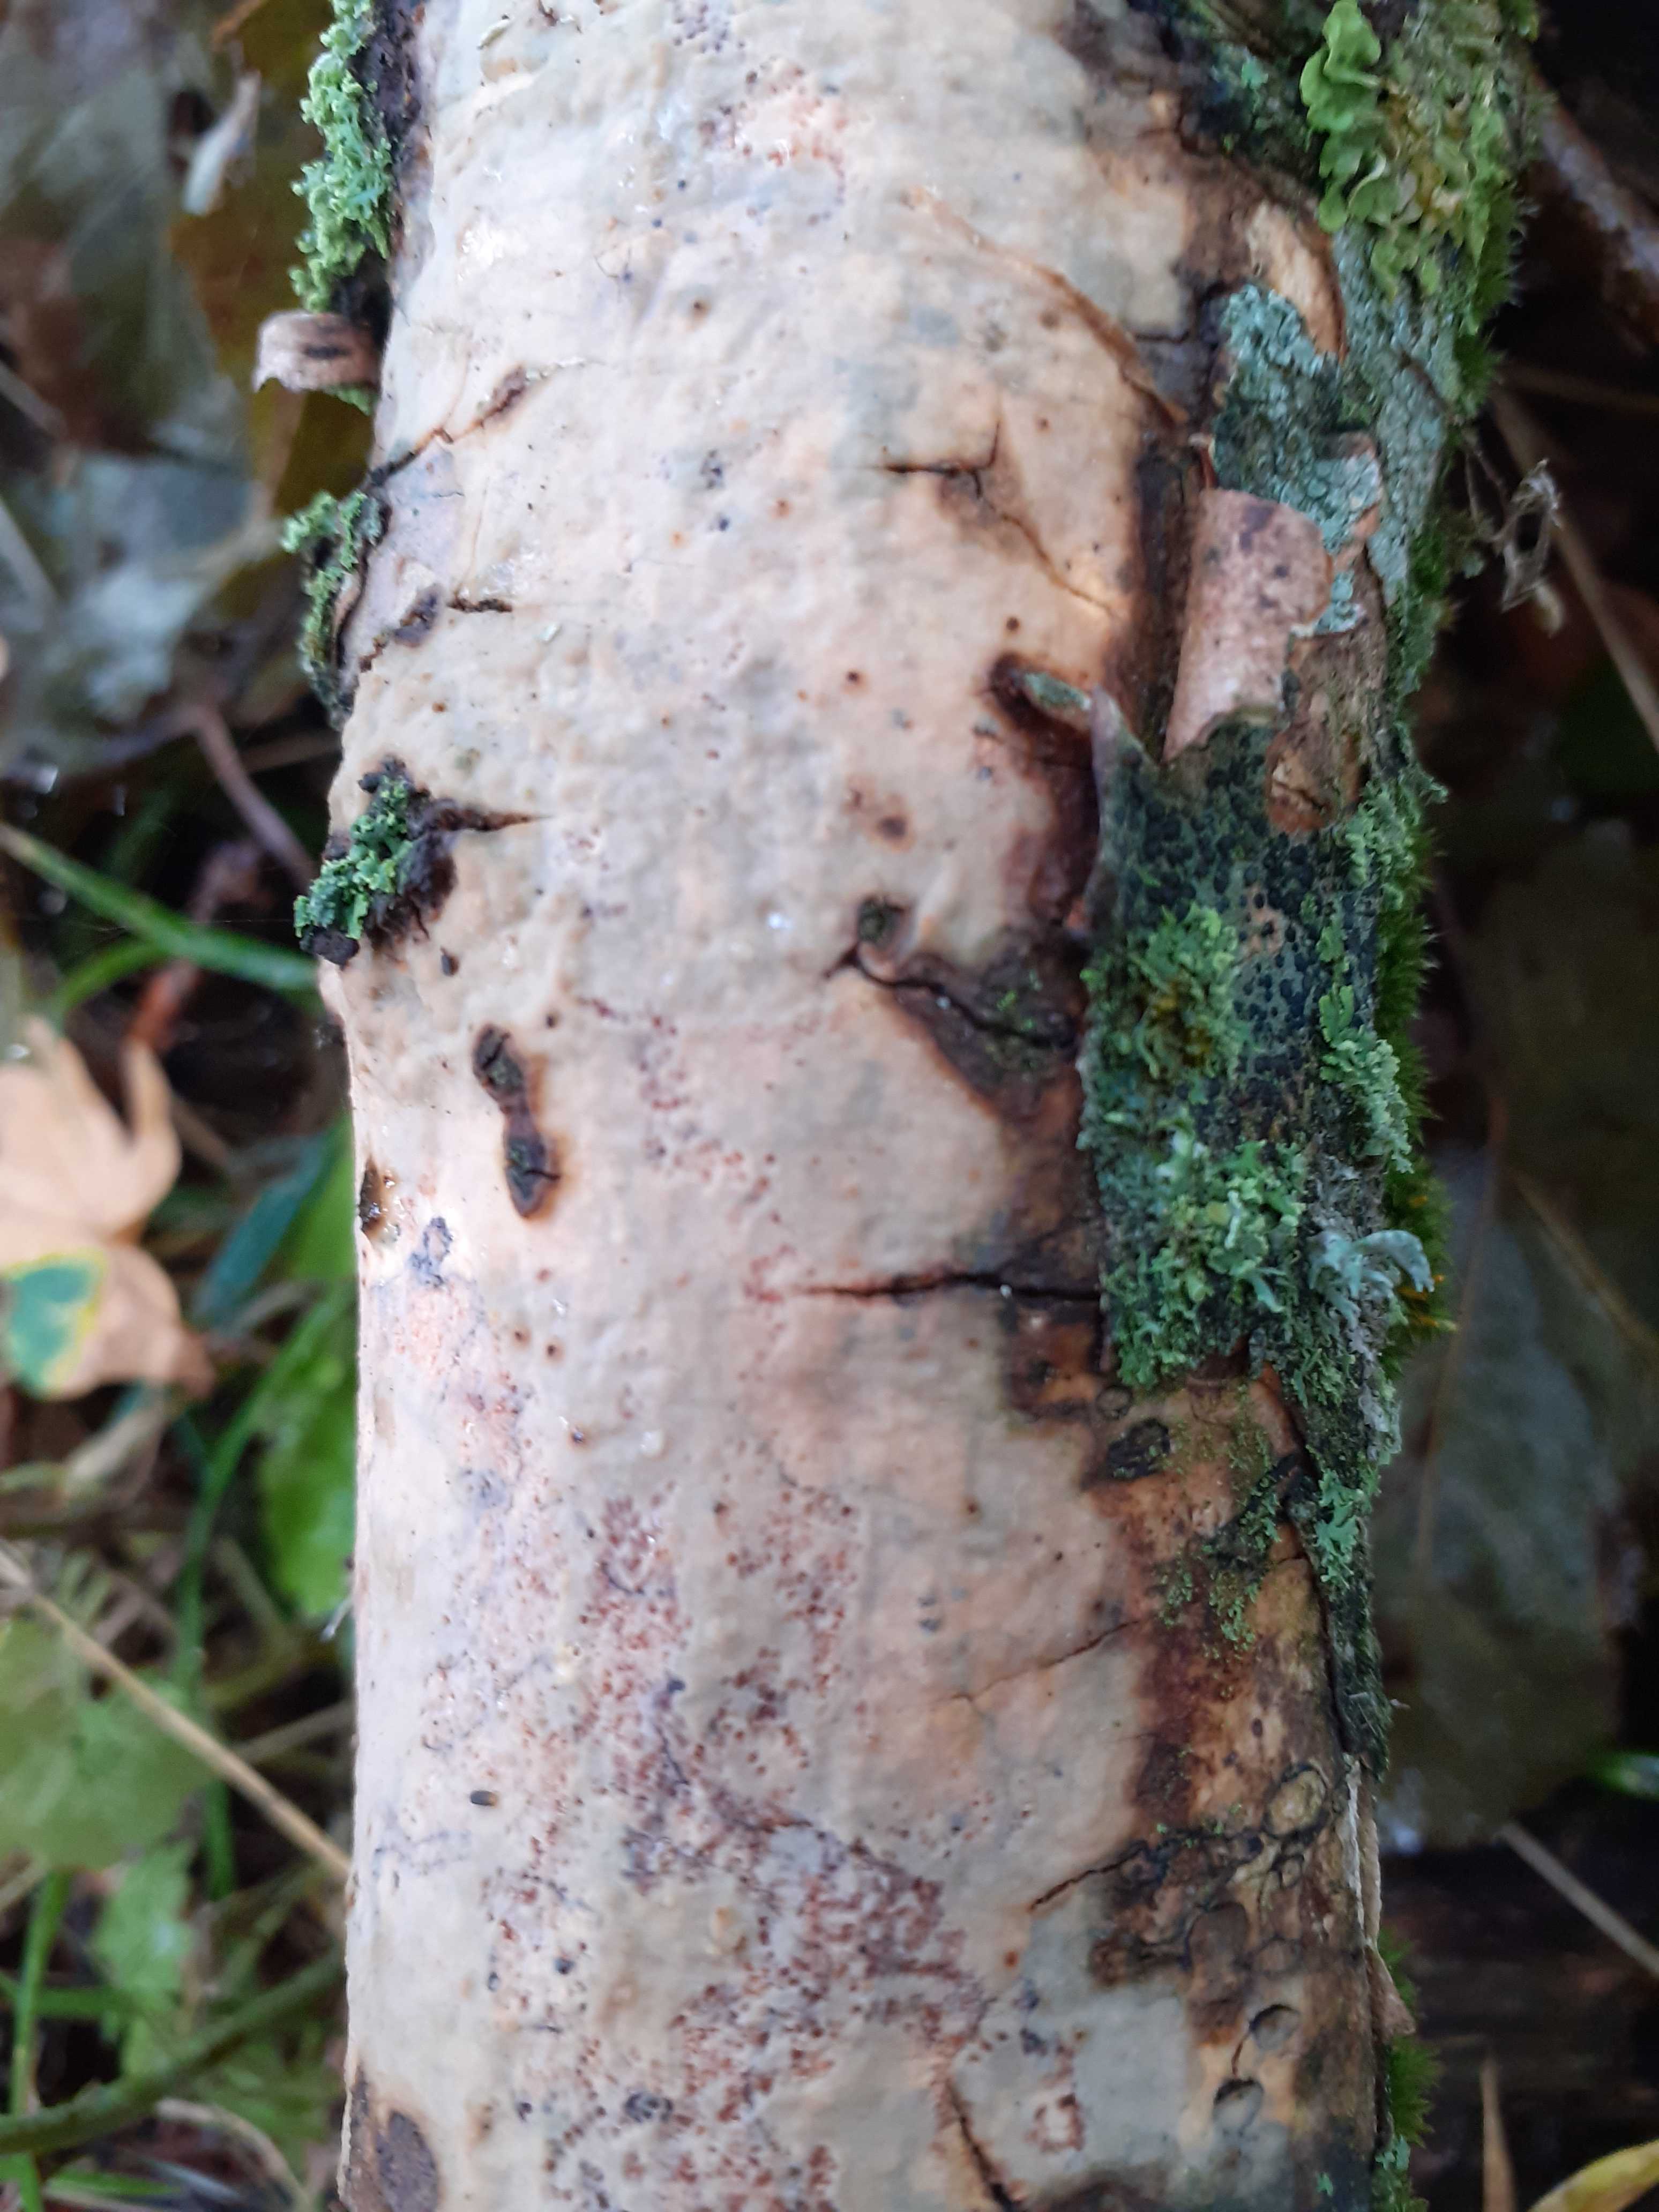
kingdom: Fungi
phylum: Basidiomycota
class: Agaricomycetes
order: Corticiales
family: Vuilleminiaceae
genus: Vuilleminia
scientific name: Vuilleminia comedens
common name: almindelig barksprænger
